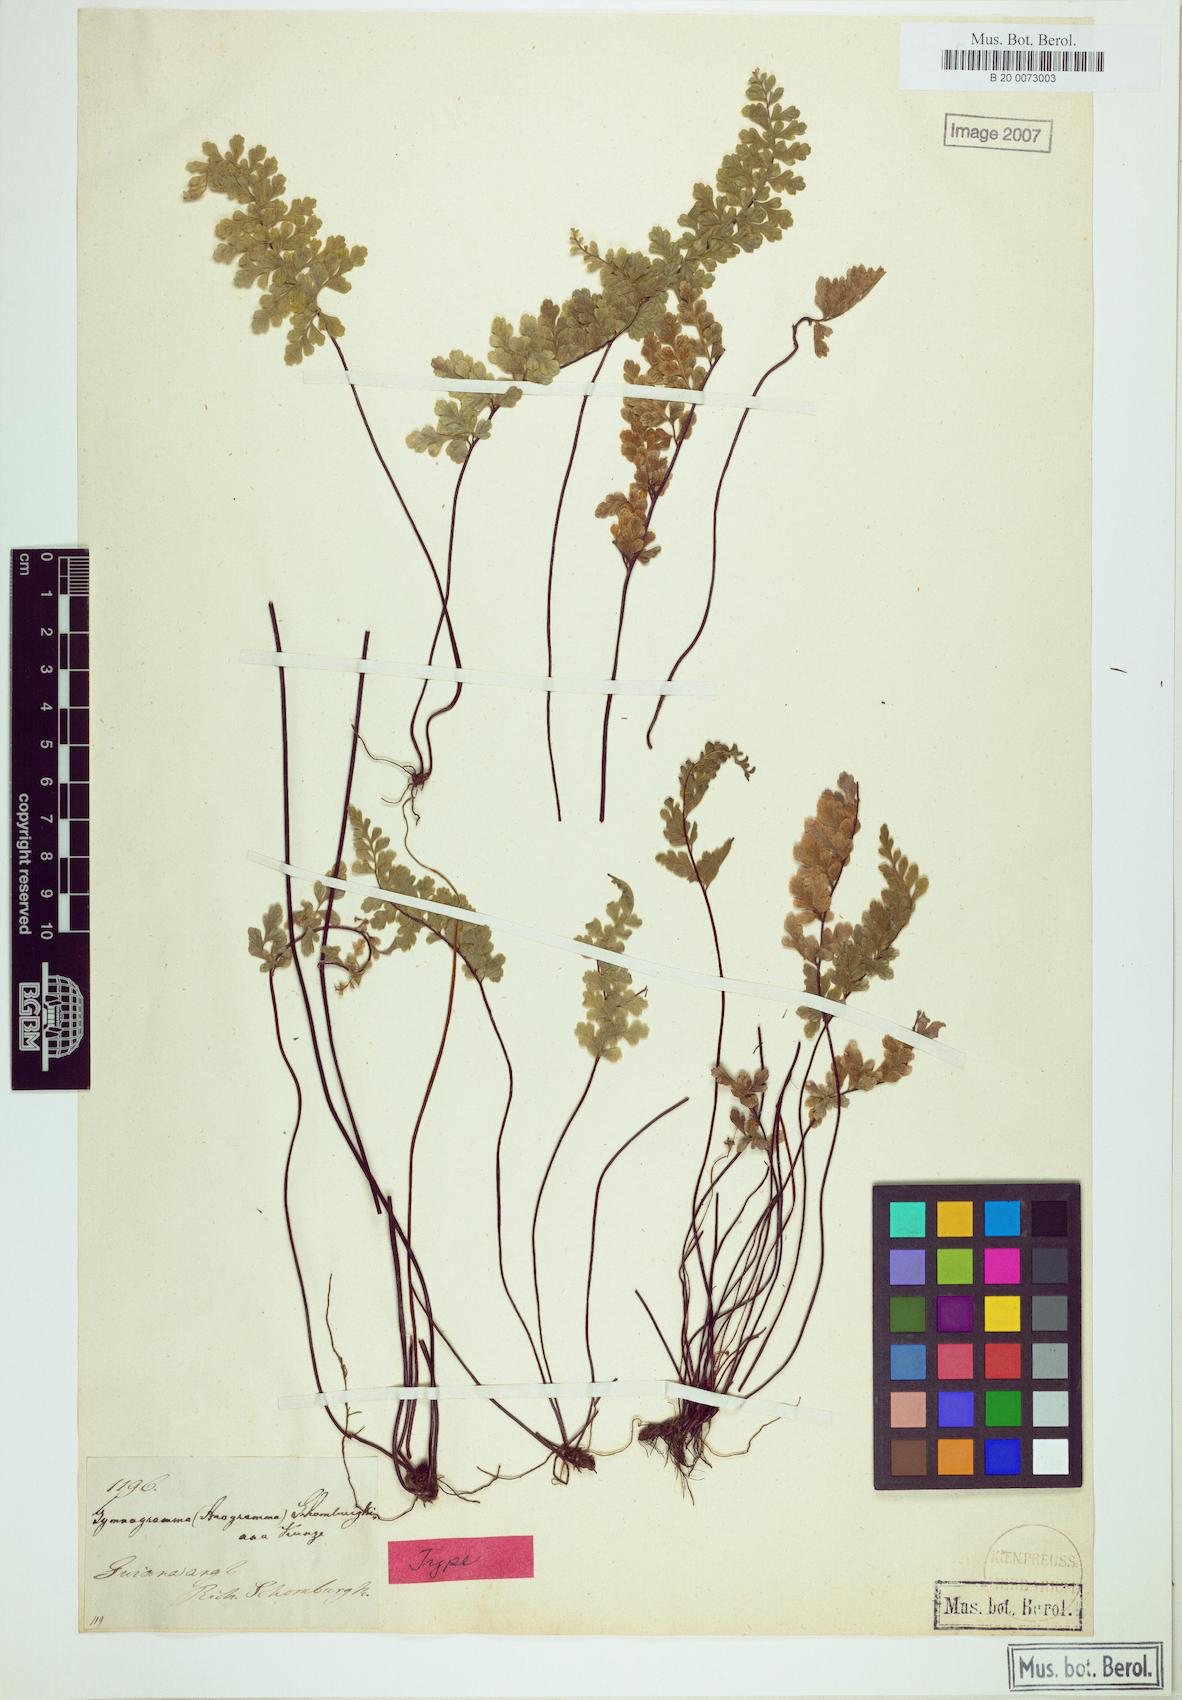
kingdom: Plantae
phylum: Tracheophyta
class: Polypodiopsida
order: Polypodiales
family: Pteridaceae
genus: Jamesonia
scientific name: Jamesonia hispidula
